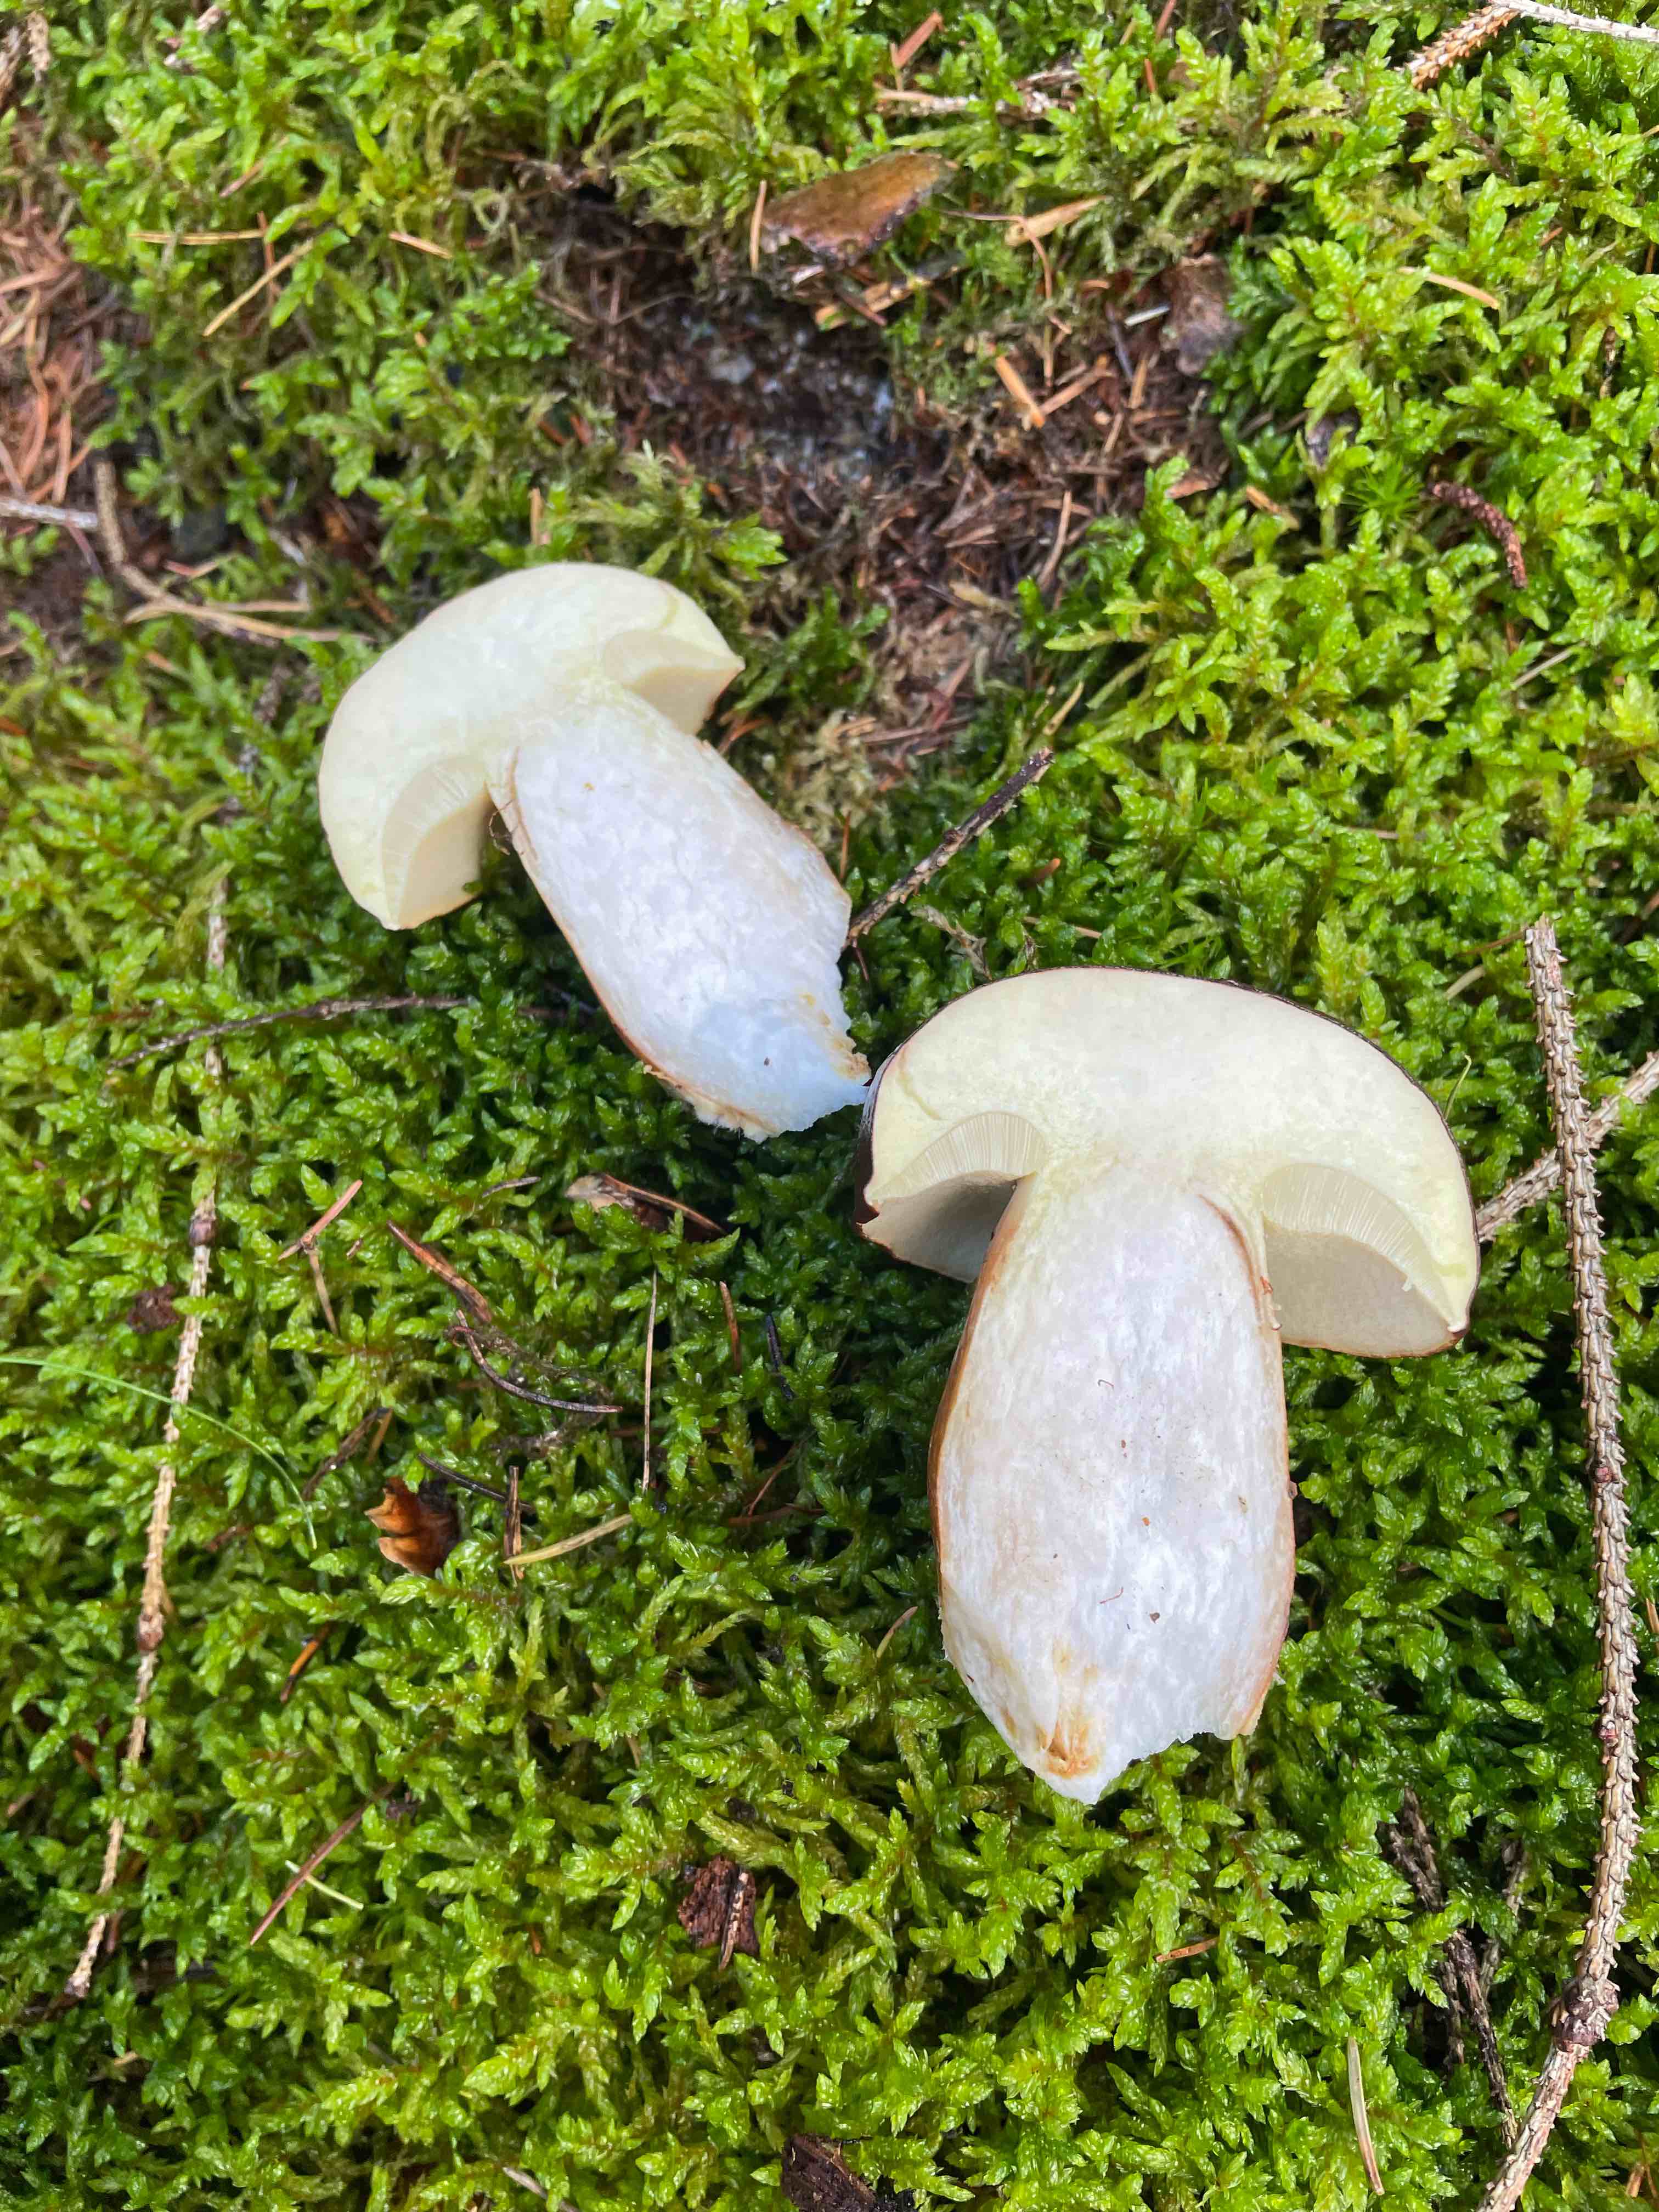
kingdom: Fungi
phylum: Basidiomycota
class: Agaricomycetes
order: Boletales
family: Boletaceae
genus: Imleria
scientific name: Imleria badia
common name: brunstokket rørhat
